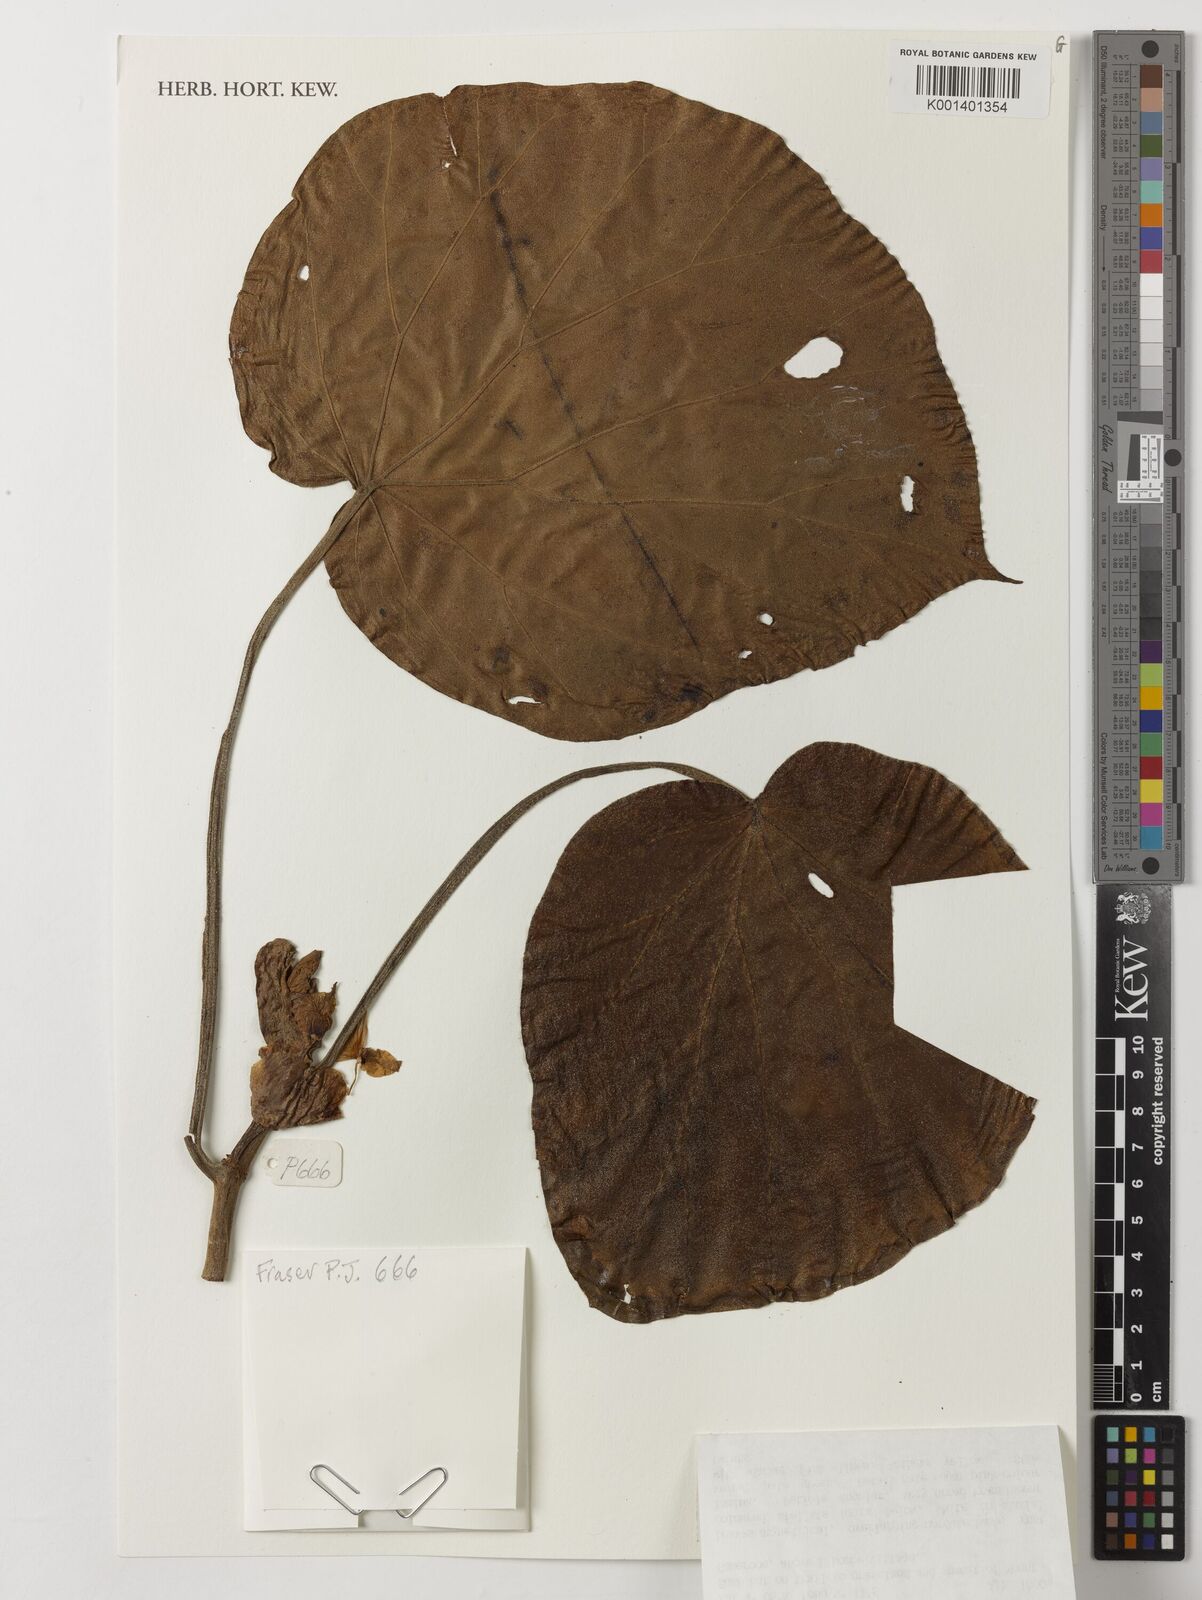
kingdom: Plantae
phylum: Tracheophyta
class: Magnoliopsida
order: Cucurbitales
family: Begoniaceae
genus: Begonia
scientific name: Begonia ampla
